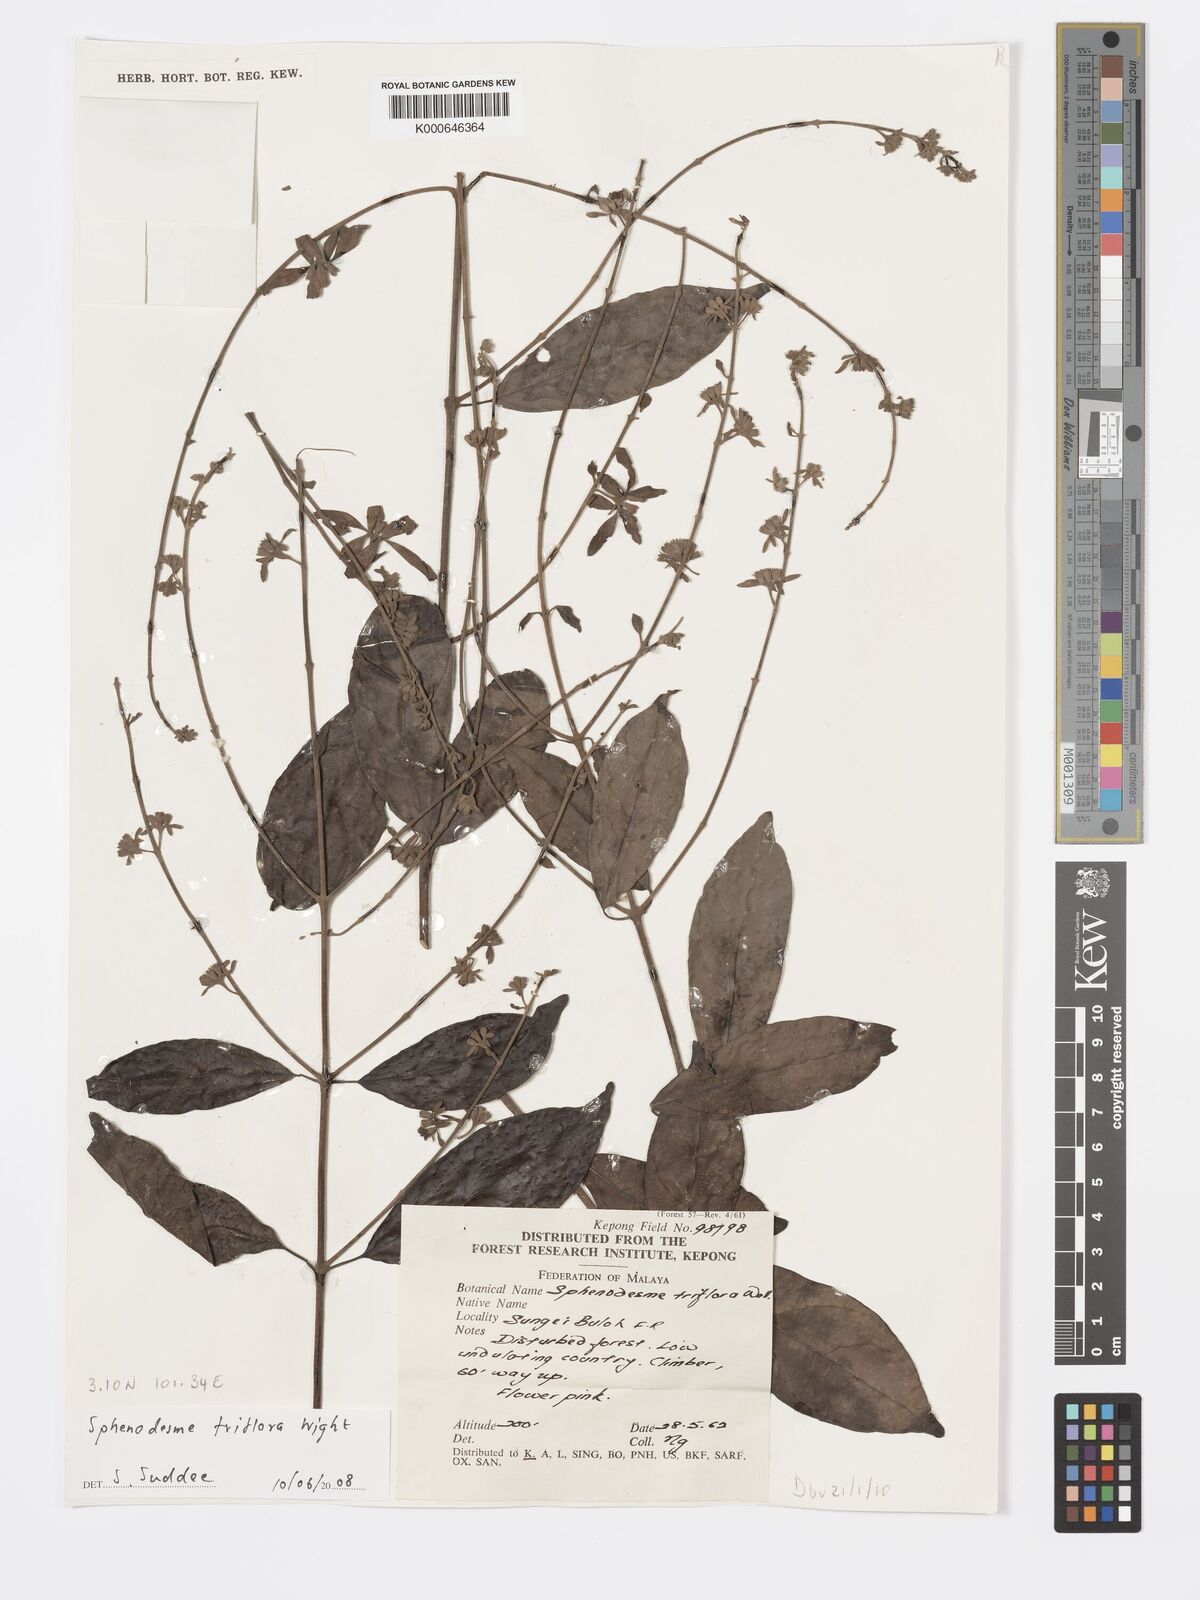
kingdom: Plantae
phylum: Tracheophyta
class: Magnoliopsida
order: Lamiales
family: Lamiaceae
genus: Sphenodesme
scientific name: Sphenodesme
